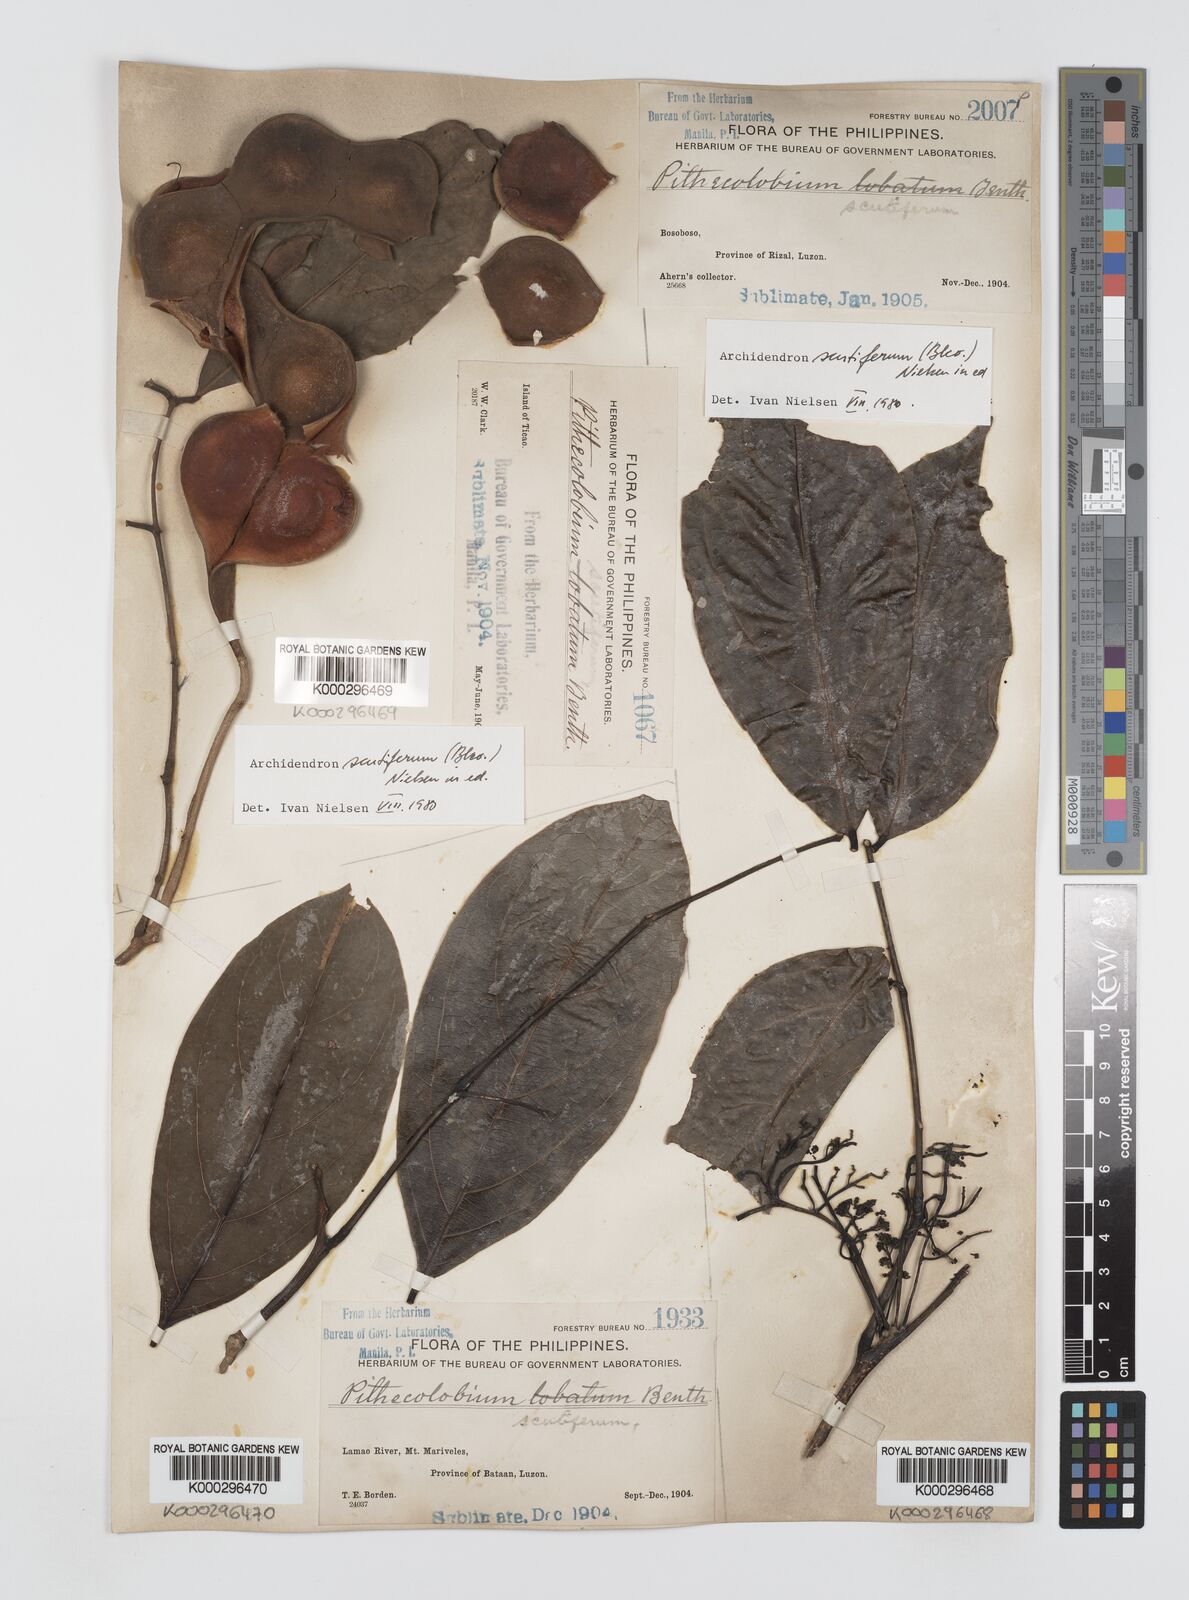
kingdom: Plantae
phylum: Tracheophyta
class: Magnoliopsida
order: Fabales
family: Fabaceae
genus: Archidendron
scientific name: Archidendron scutiferum
